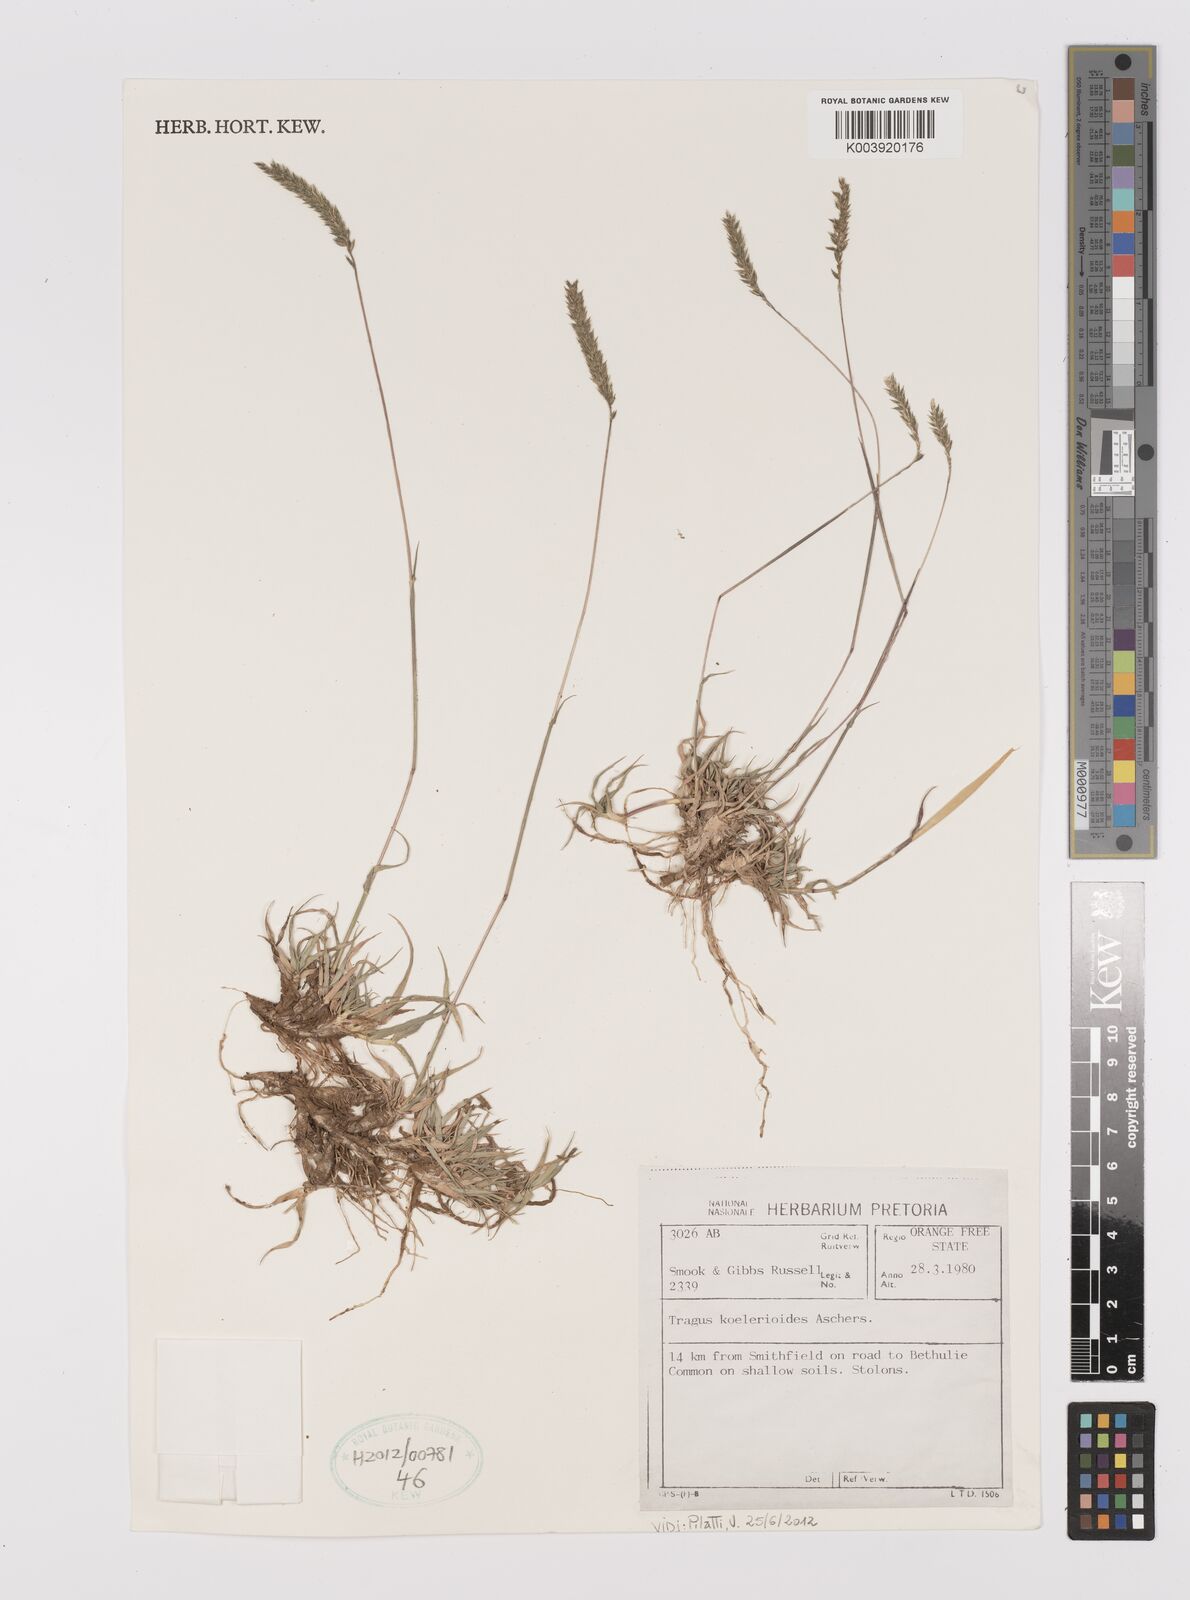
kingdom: Plantae
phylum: Tracheophyta
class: Liliopsida
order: Poales
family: Poaceae
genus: Tragus
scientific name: Tragus koelerioides
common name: Creeping carrot-seed grass
